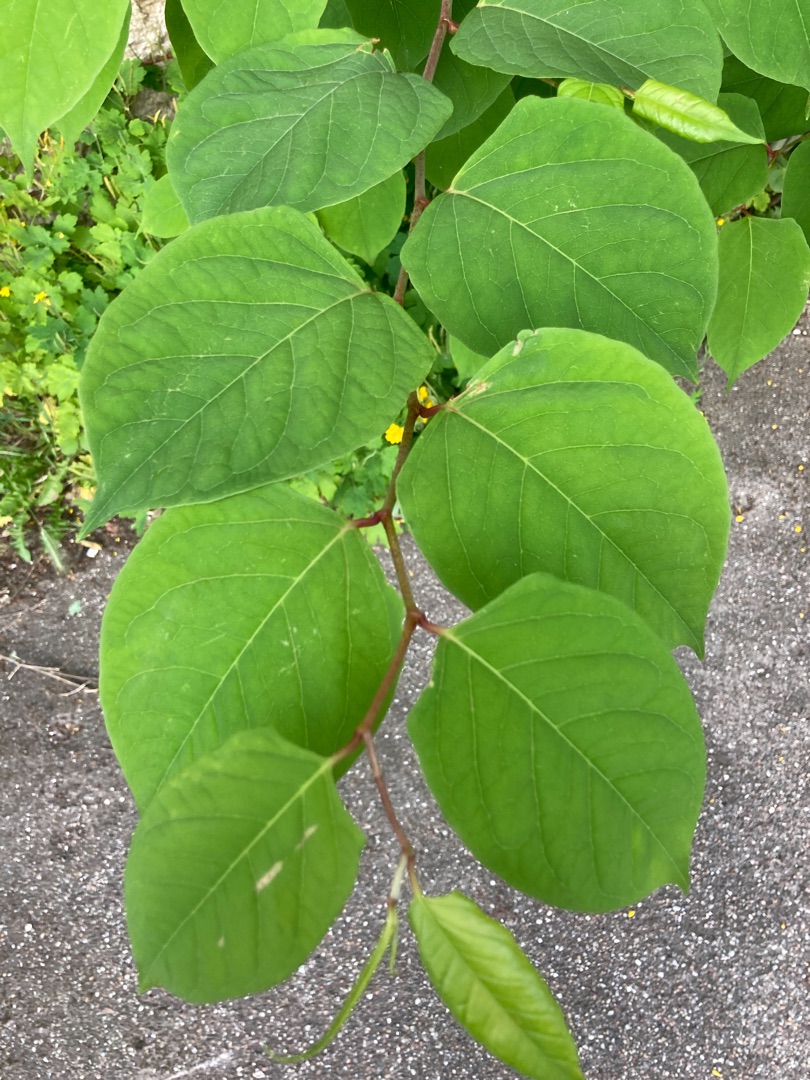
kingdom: Plantae
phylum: Tracheophyta
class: Magnoliopsida
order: Caryophyllales
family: Polygonaceae
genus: Reynoutria
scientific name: Reynoutria japonica
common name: Japan-pileurt
